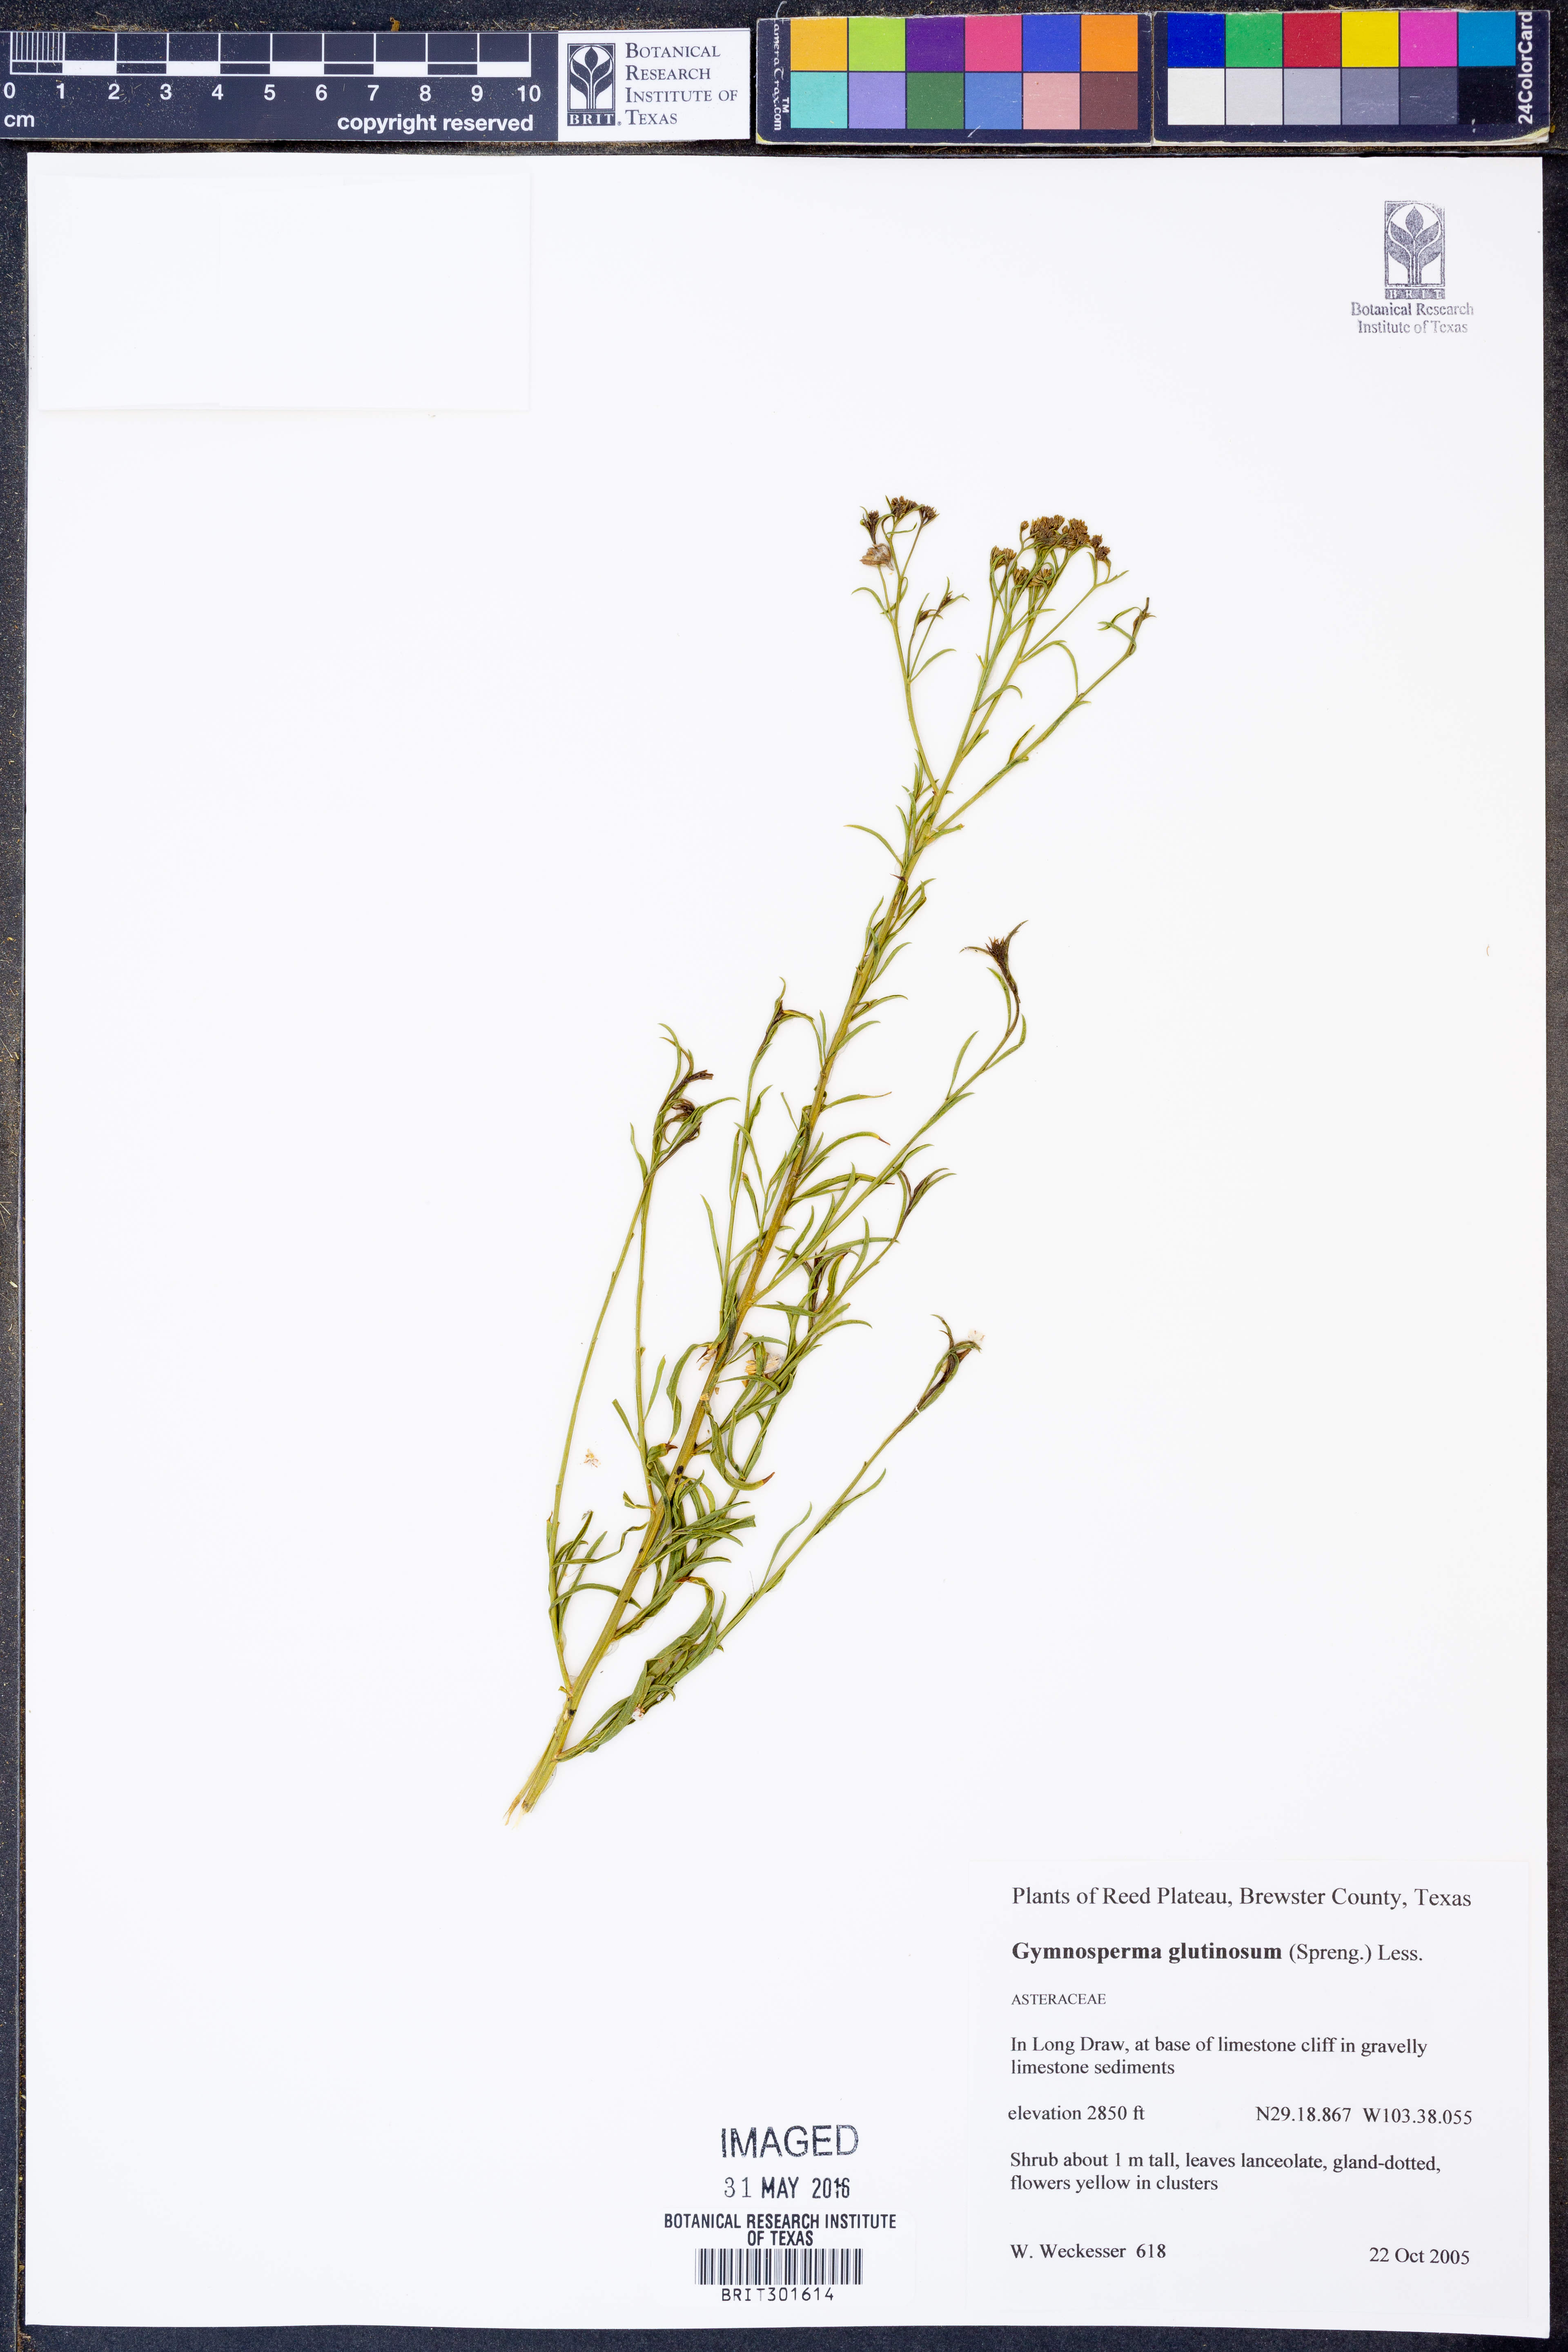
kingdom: Plantae
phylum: Tracheophyta
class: Magnoliopsida
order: Asterales
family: Asteraceae
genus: Gymnosperma
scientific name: Gymnosperma glutinosum
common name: Gumhead
